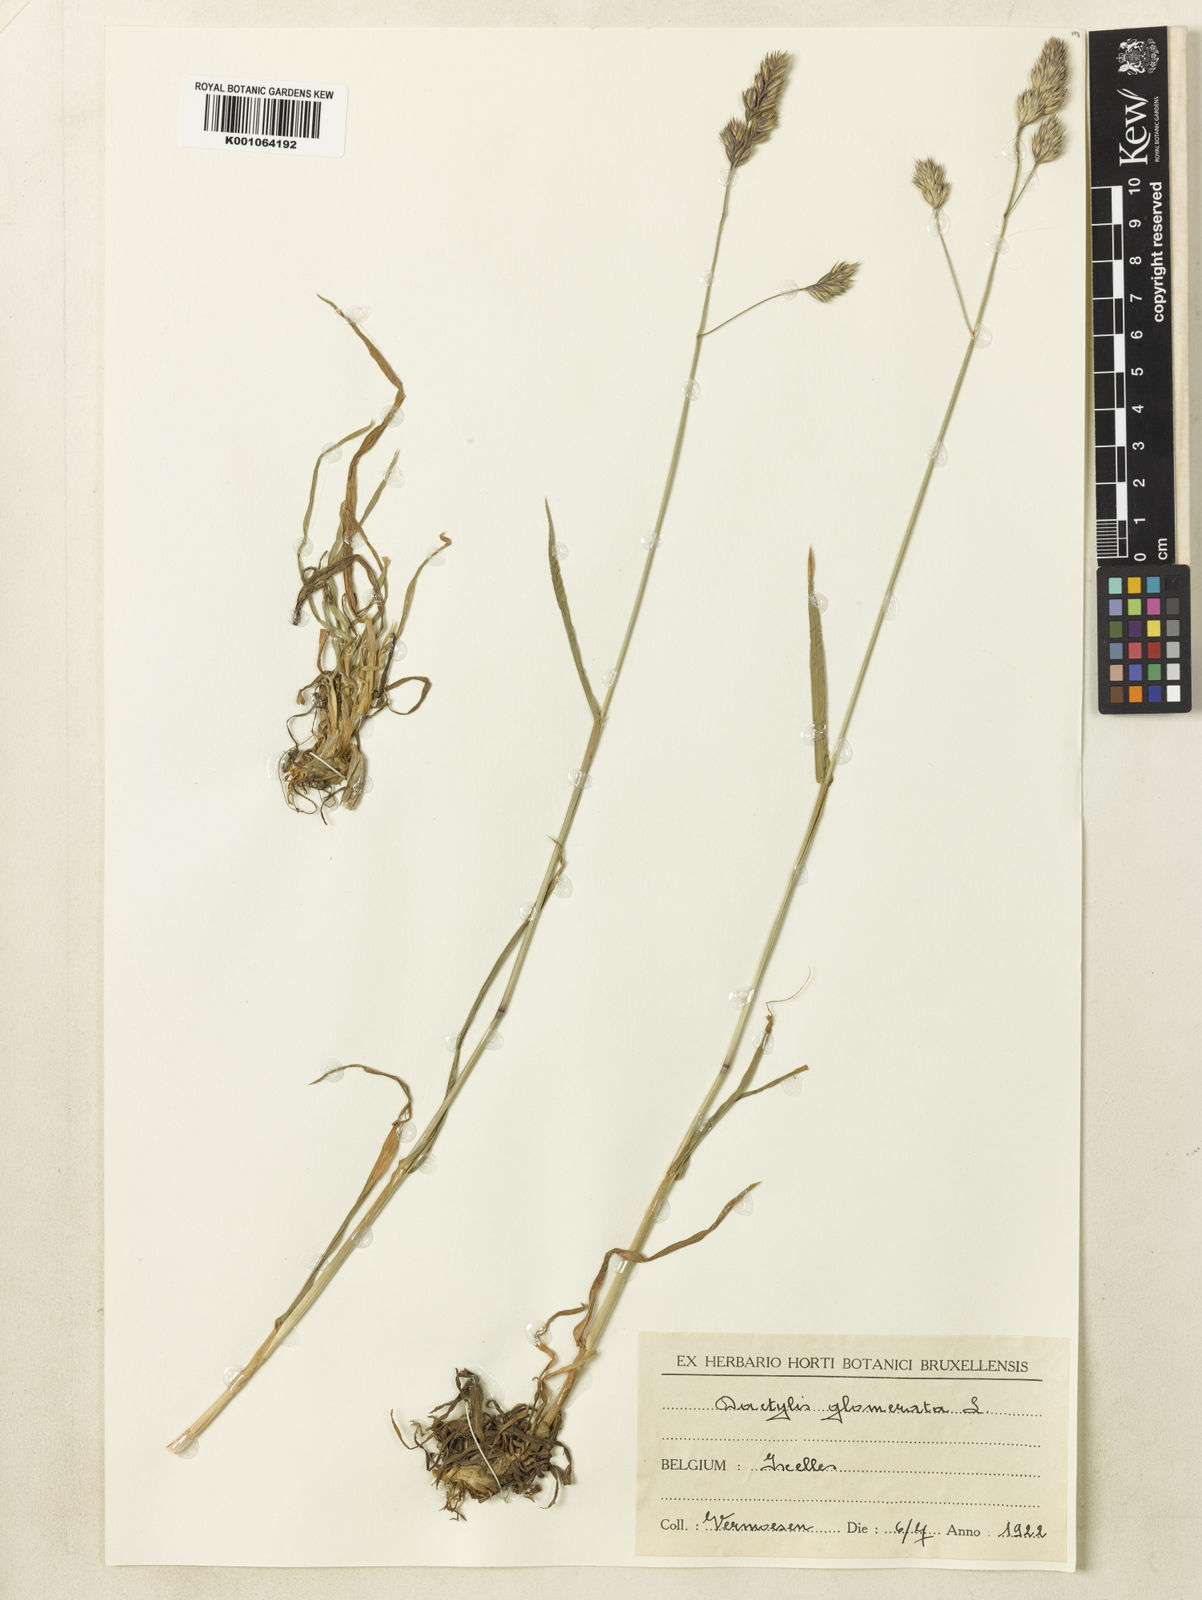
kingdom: Plantae
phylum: Tracheophyta
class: Liliopsida
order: Poales
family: Poaceae
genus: Dactylis
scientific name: Dactylis glomerata
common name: Orchardgrass
